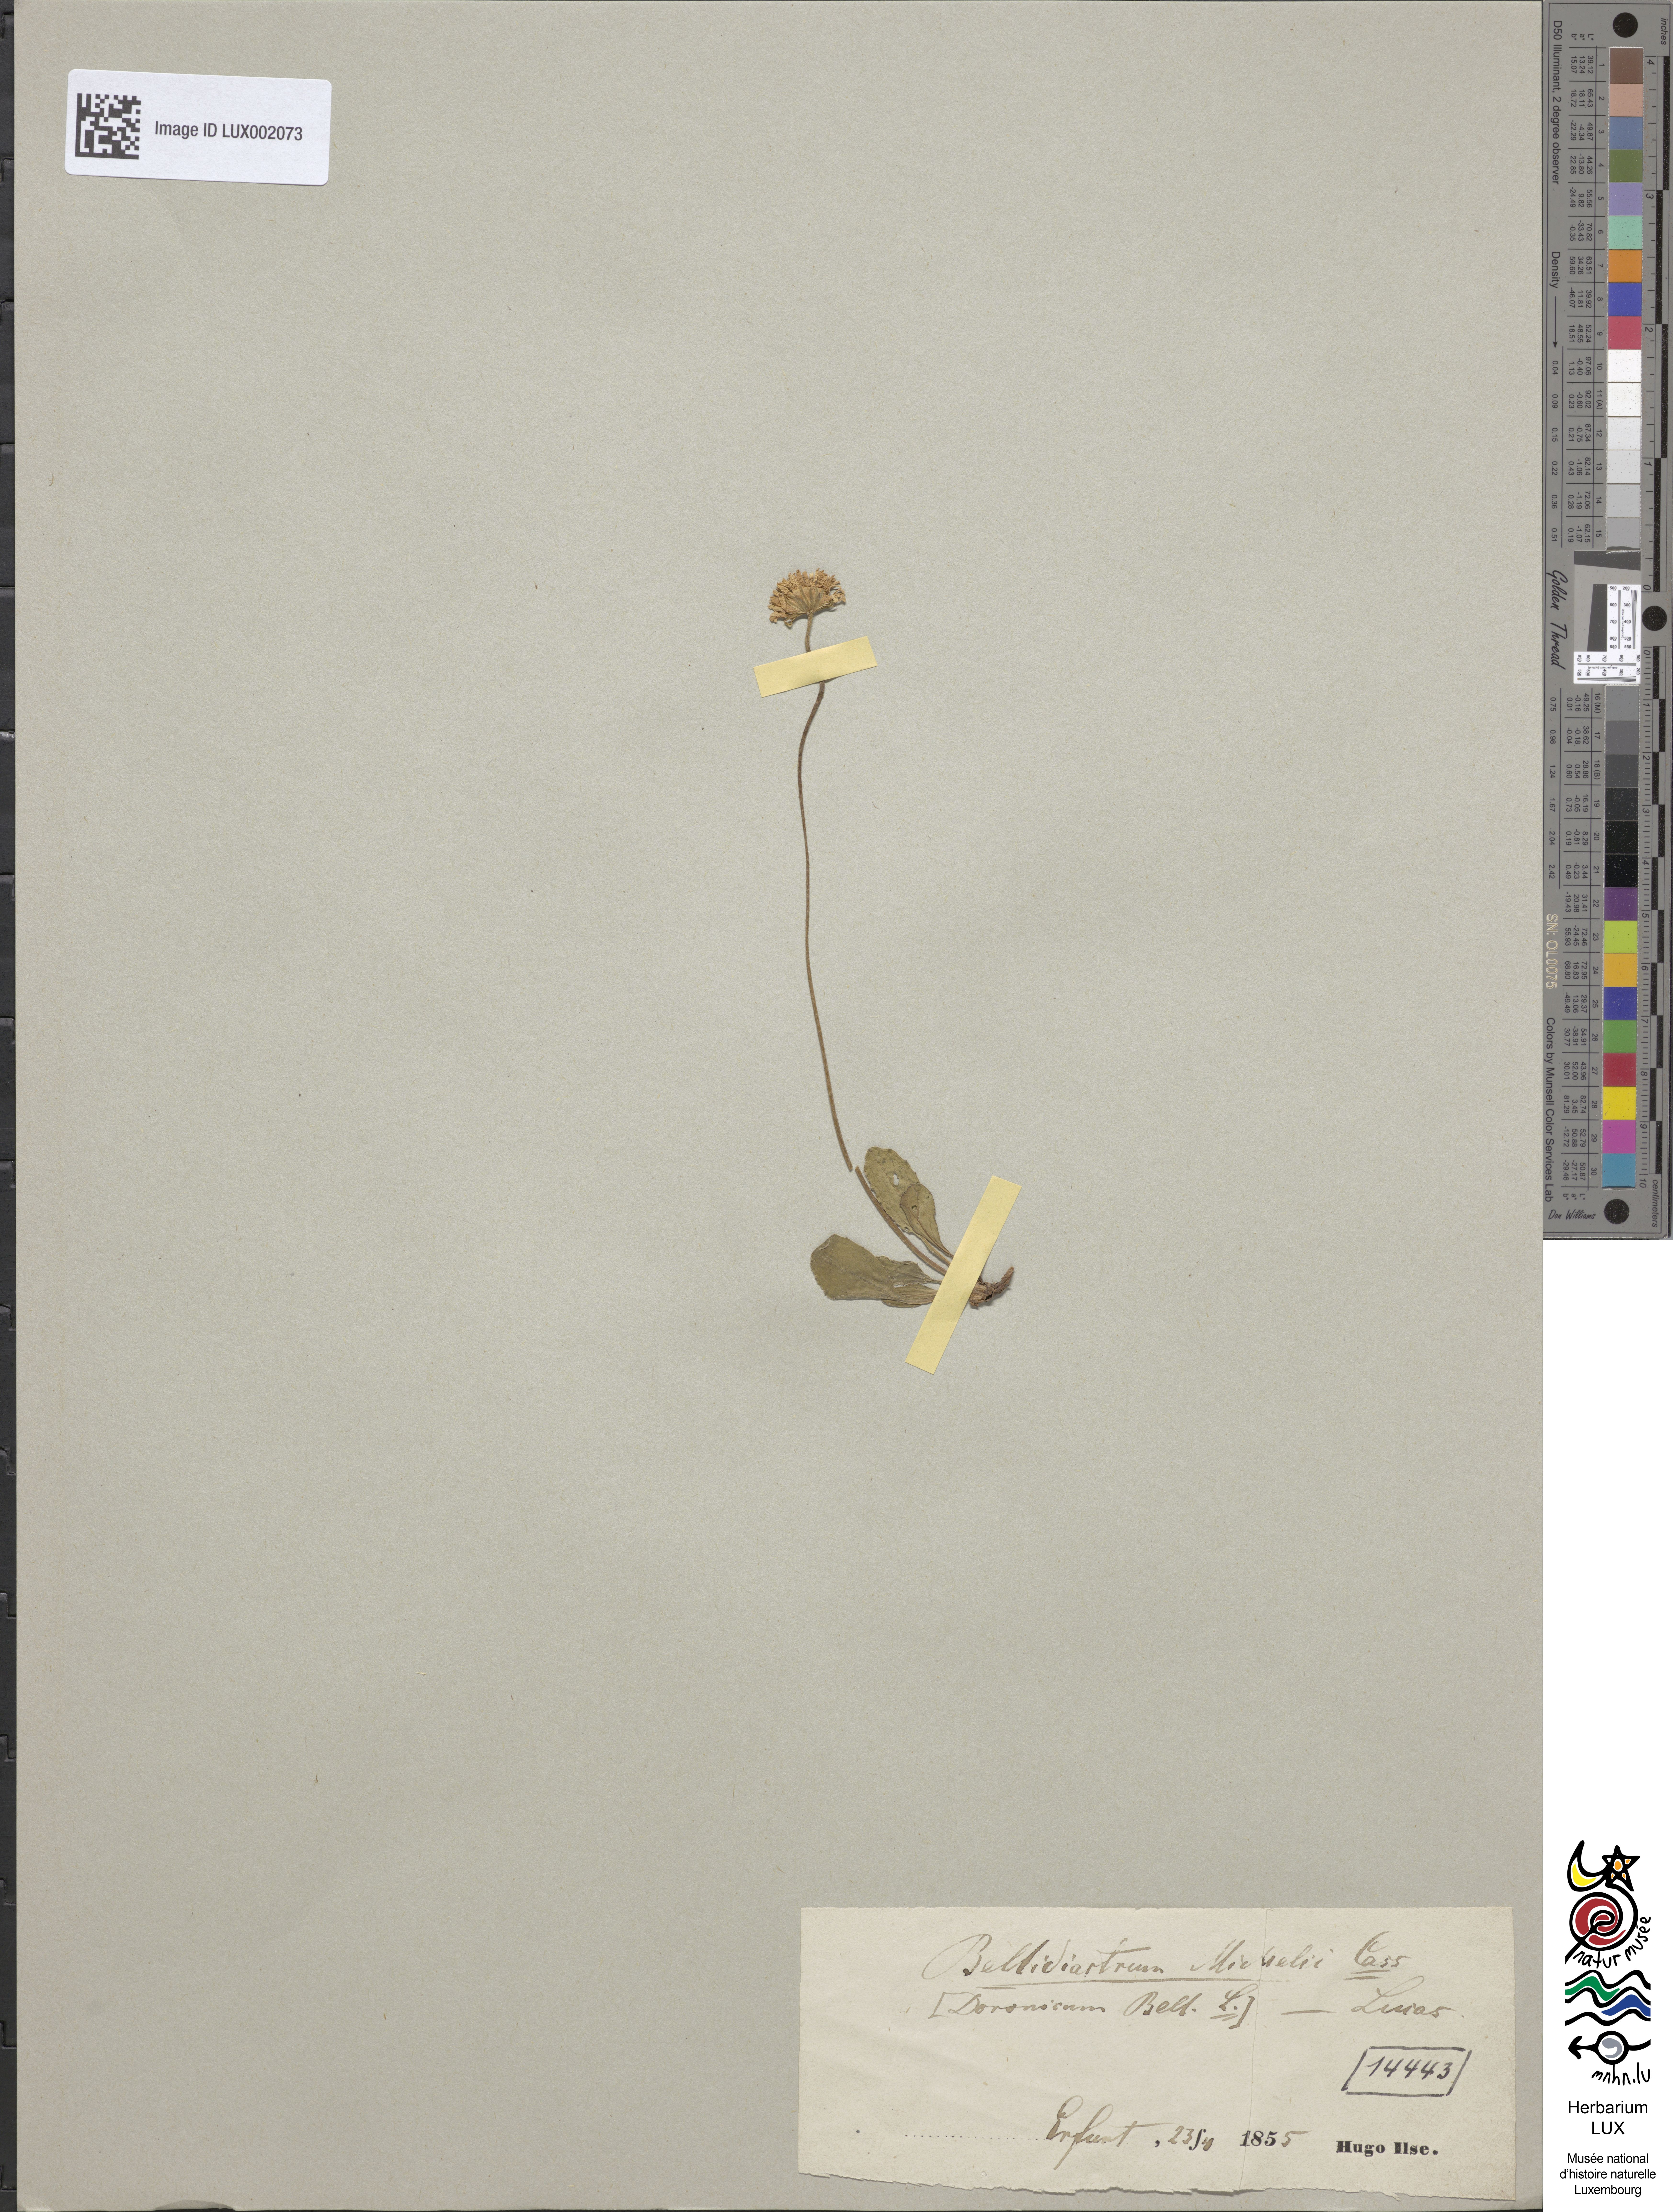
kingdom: Plantae
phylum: Tracheophyta
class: Magnoliopsida
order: Asterales
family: Asteraceae
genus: Bellidiastrum
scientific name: Bellidiastrum michelii
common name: Daisy-star aster
